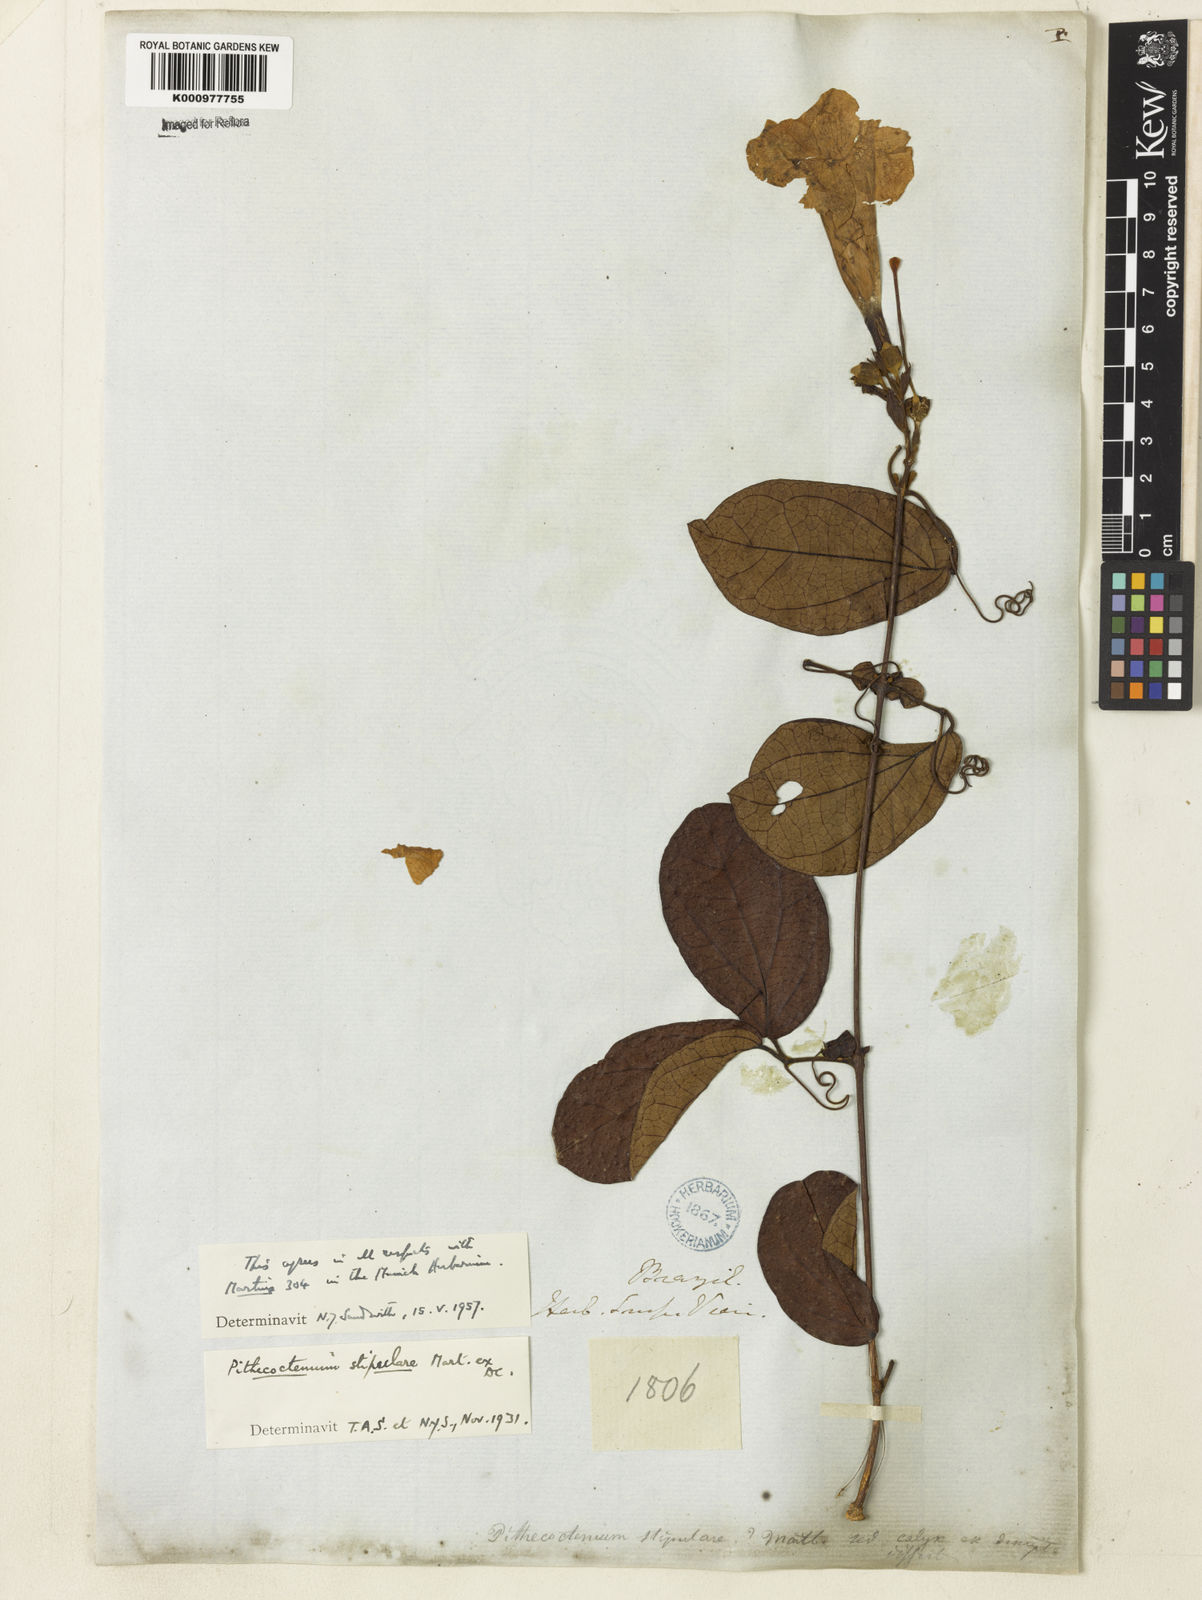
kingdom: Plantae
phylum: Tracheophyta
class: Magnoliopsida
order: Lamiales
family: Bignoniaceae
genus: Pithecoctenium
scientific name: Pithecoctenium
